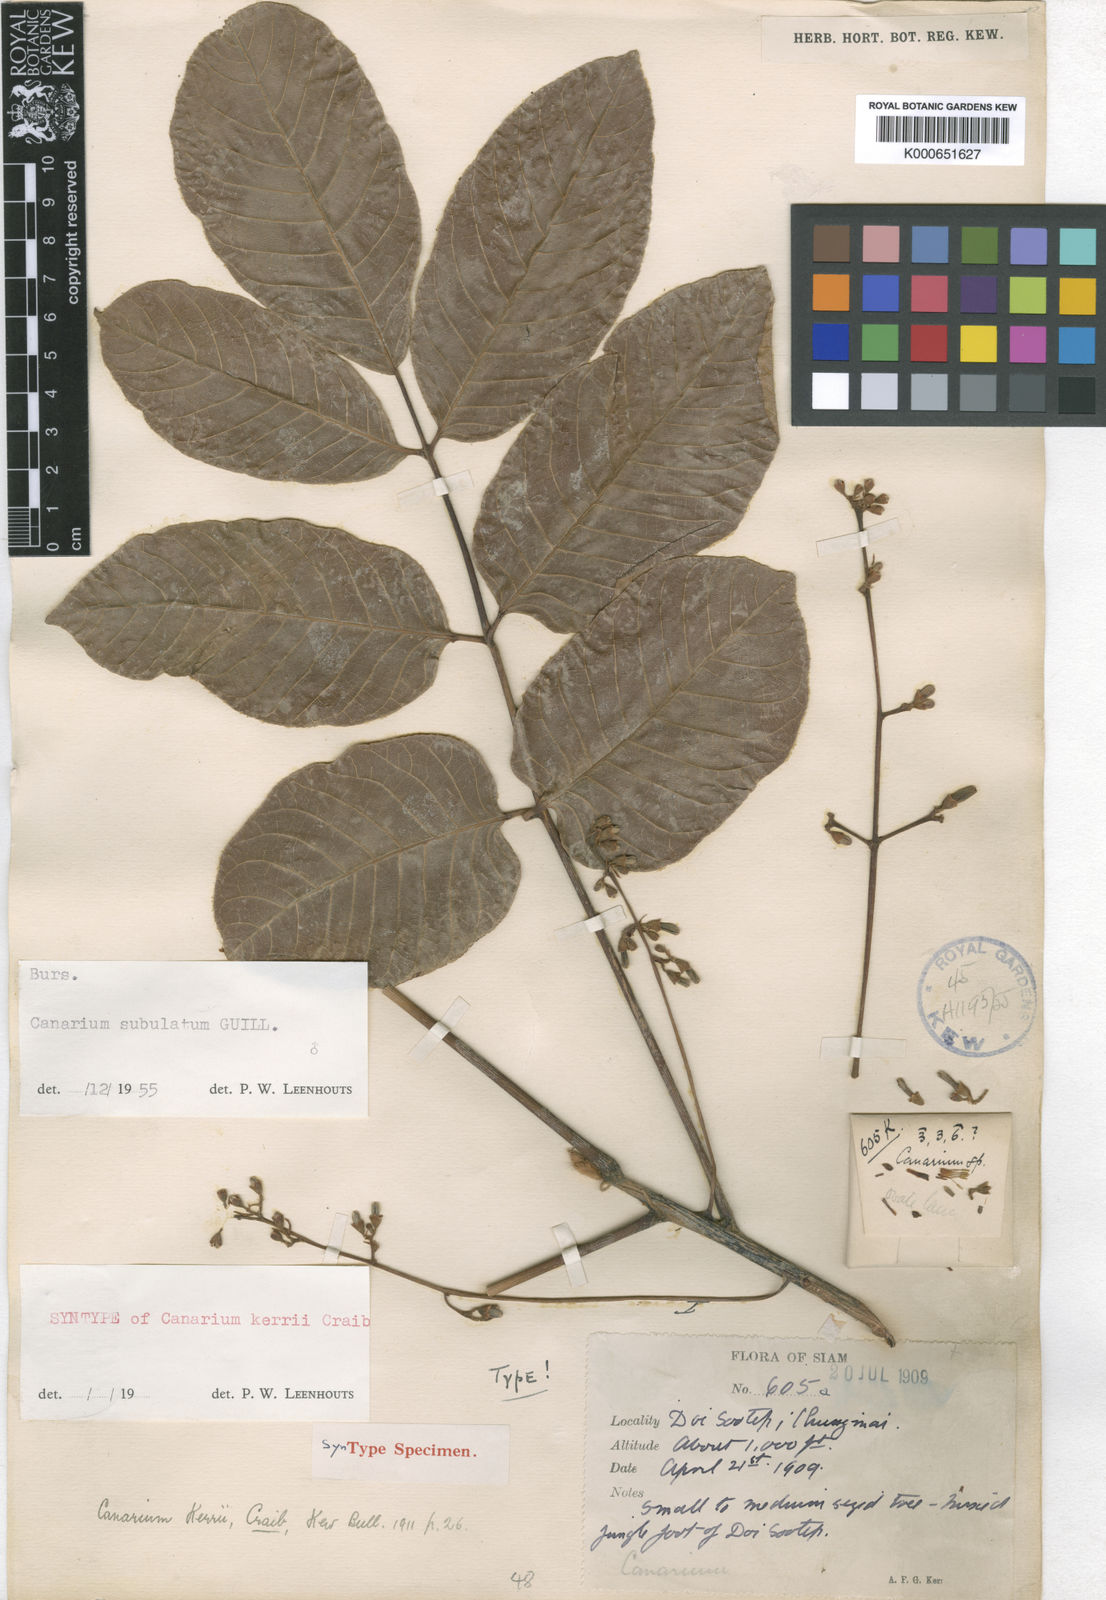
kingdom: Plantae
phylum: Tracheophyta
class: Magnoliopsida
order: Sapindales
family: Burseraceae
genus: Canarium
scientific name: Canarium subulatum
